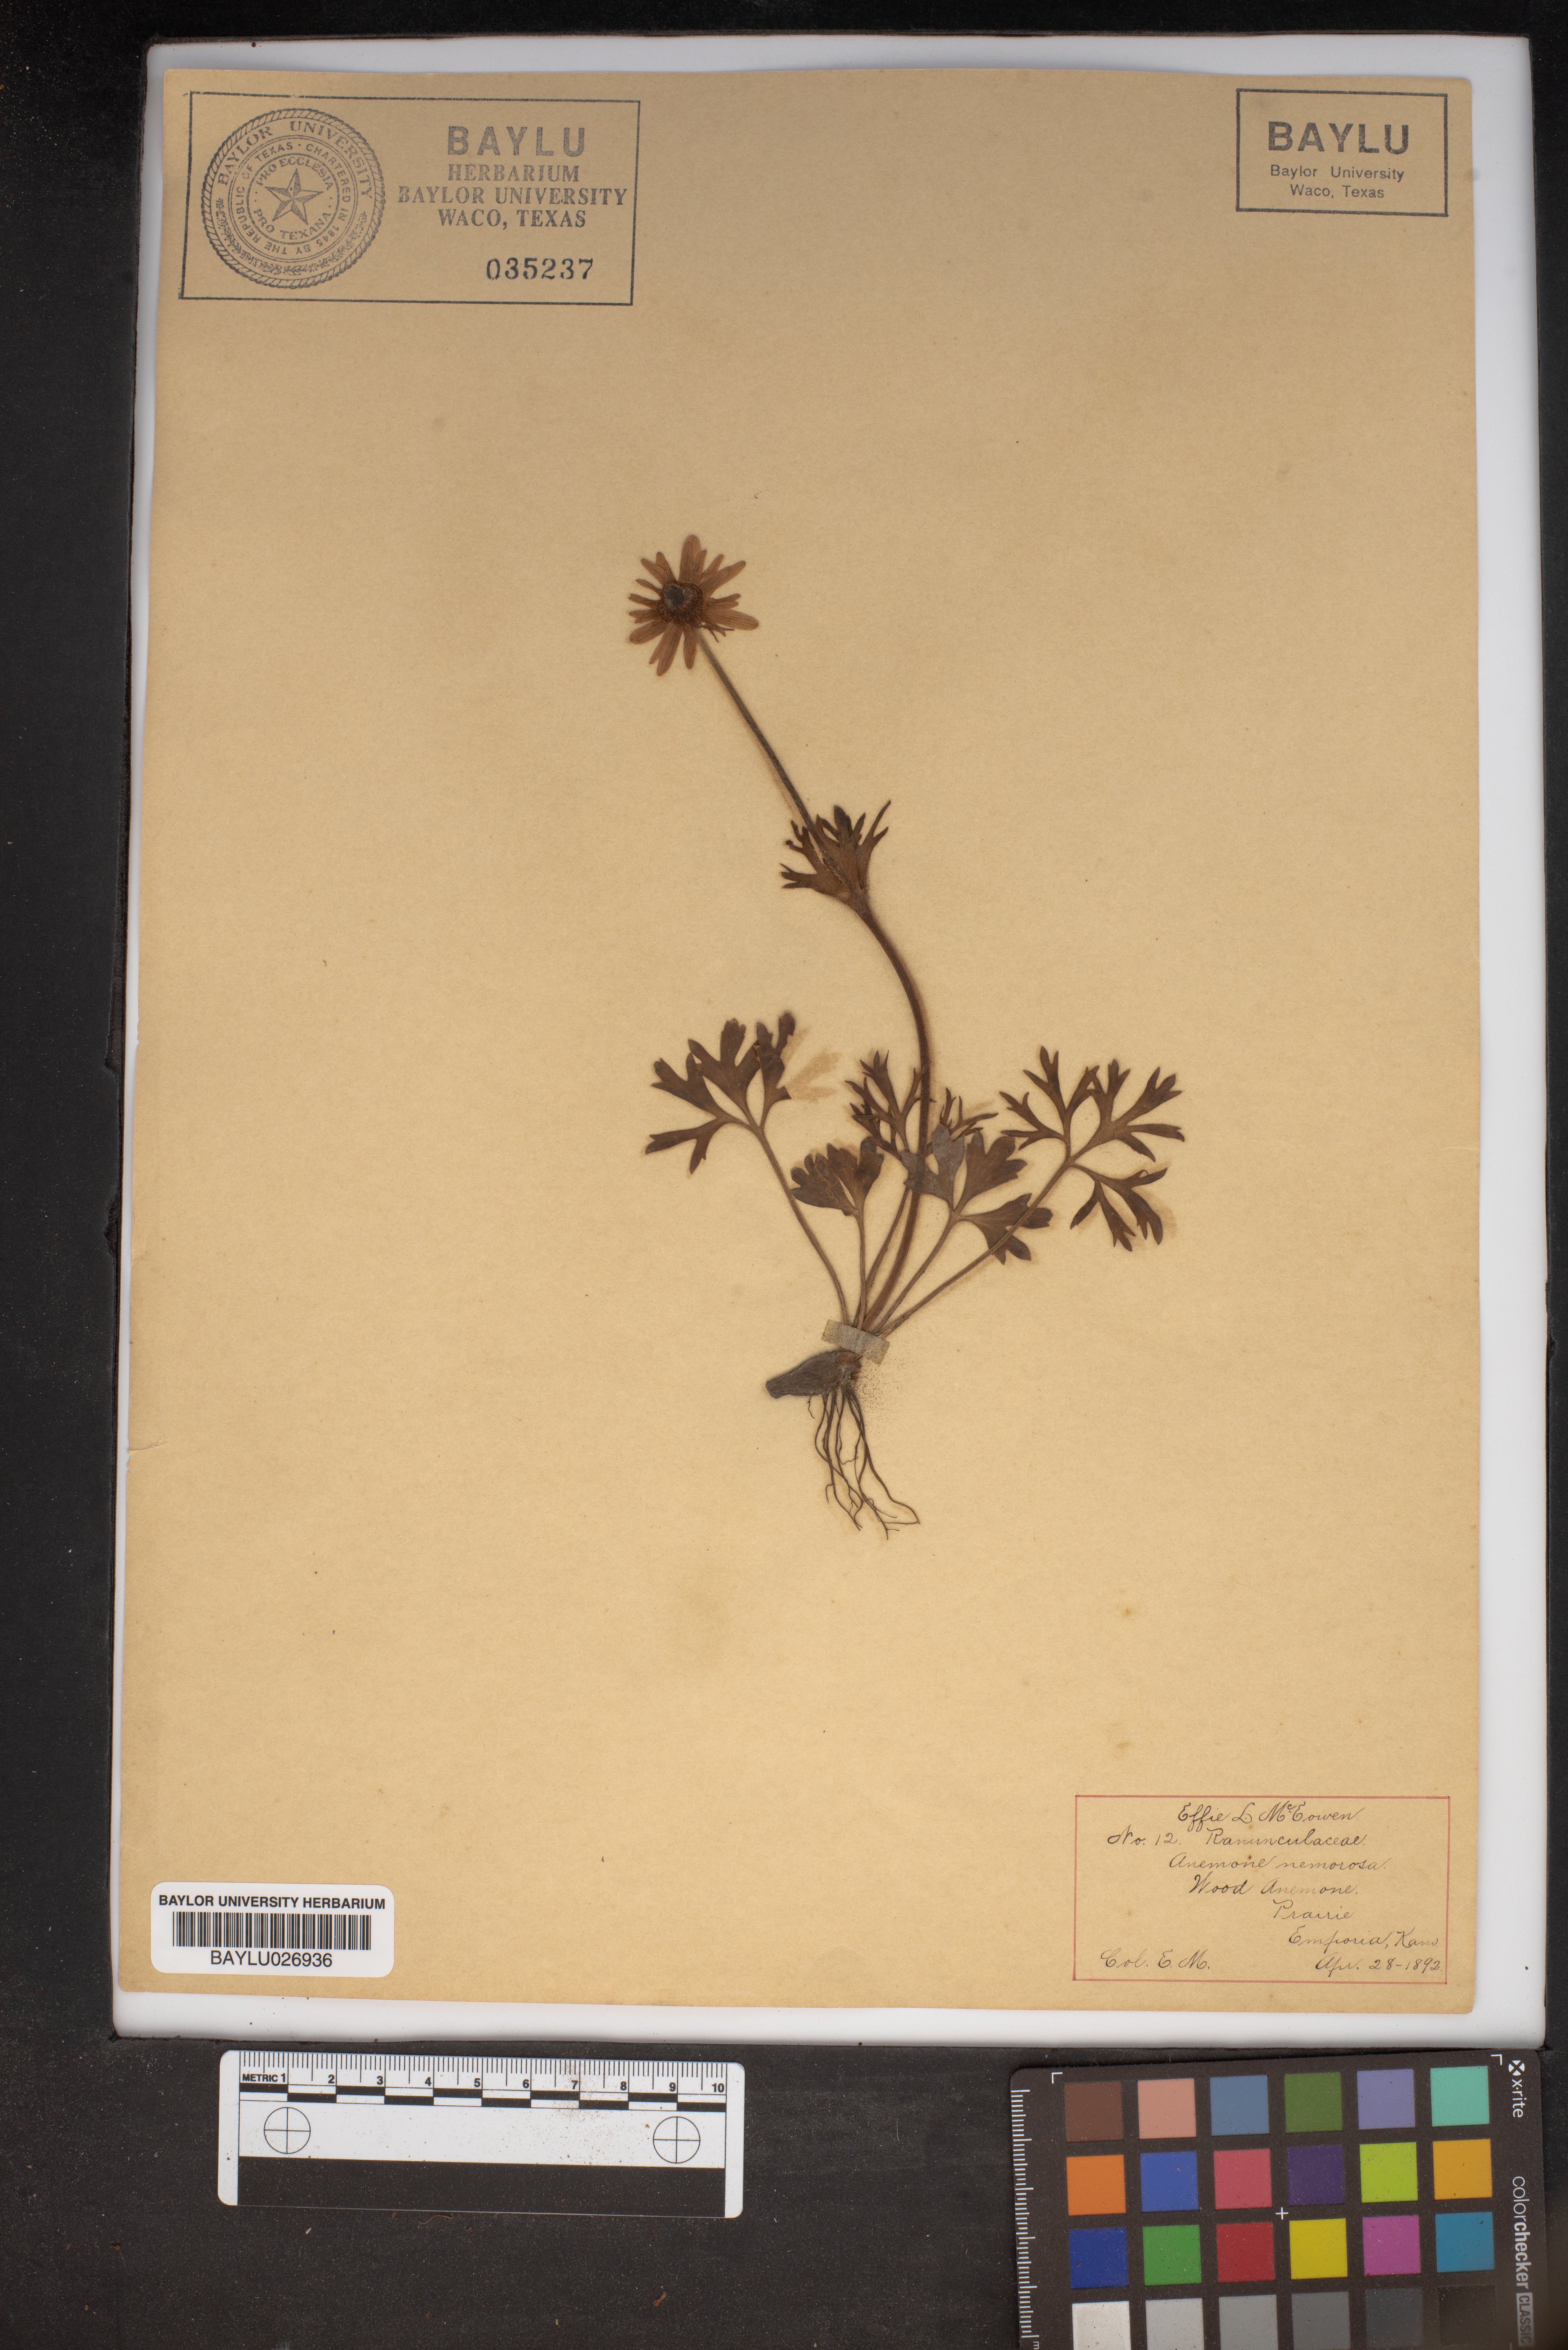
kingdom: Plantae
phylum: Tracheophyta
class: Magnoliopsida
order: Ranunculales
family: Ranunculaceae
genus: Anemone
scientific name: Anemone nemorosa
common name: Wood anemone
